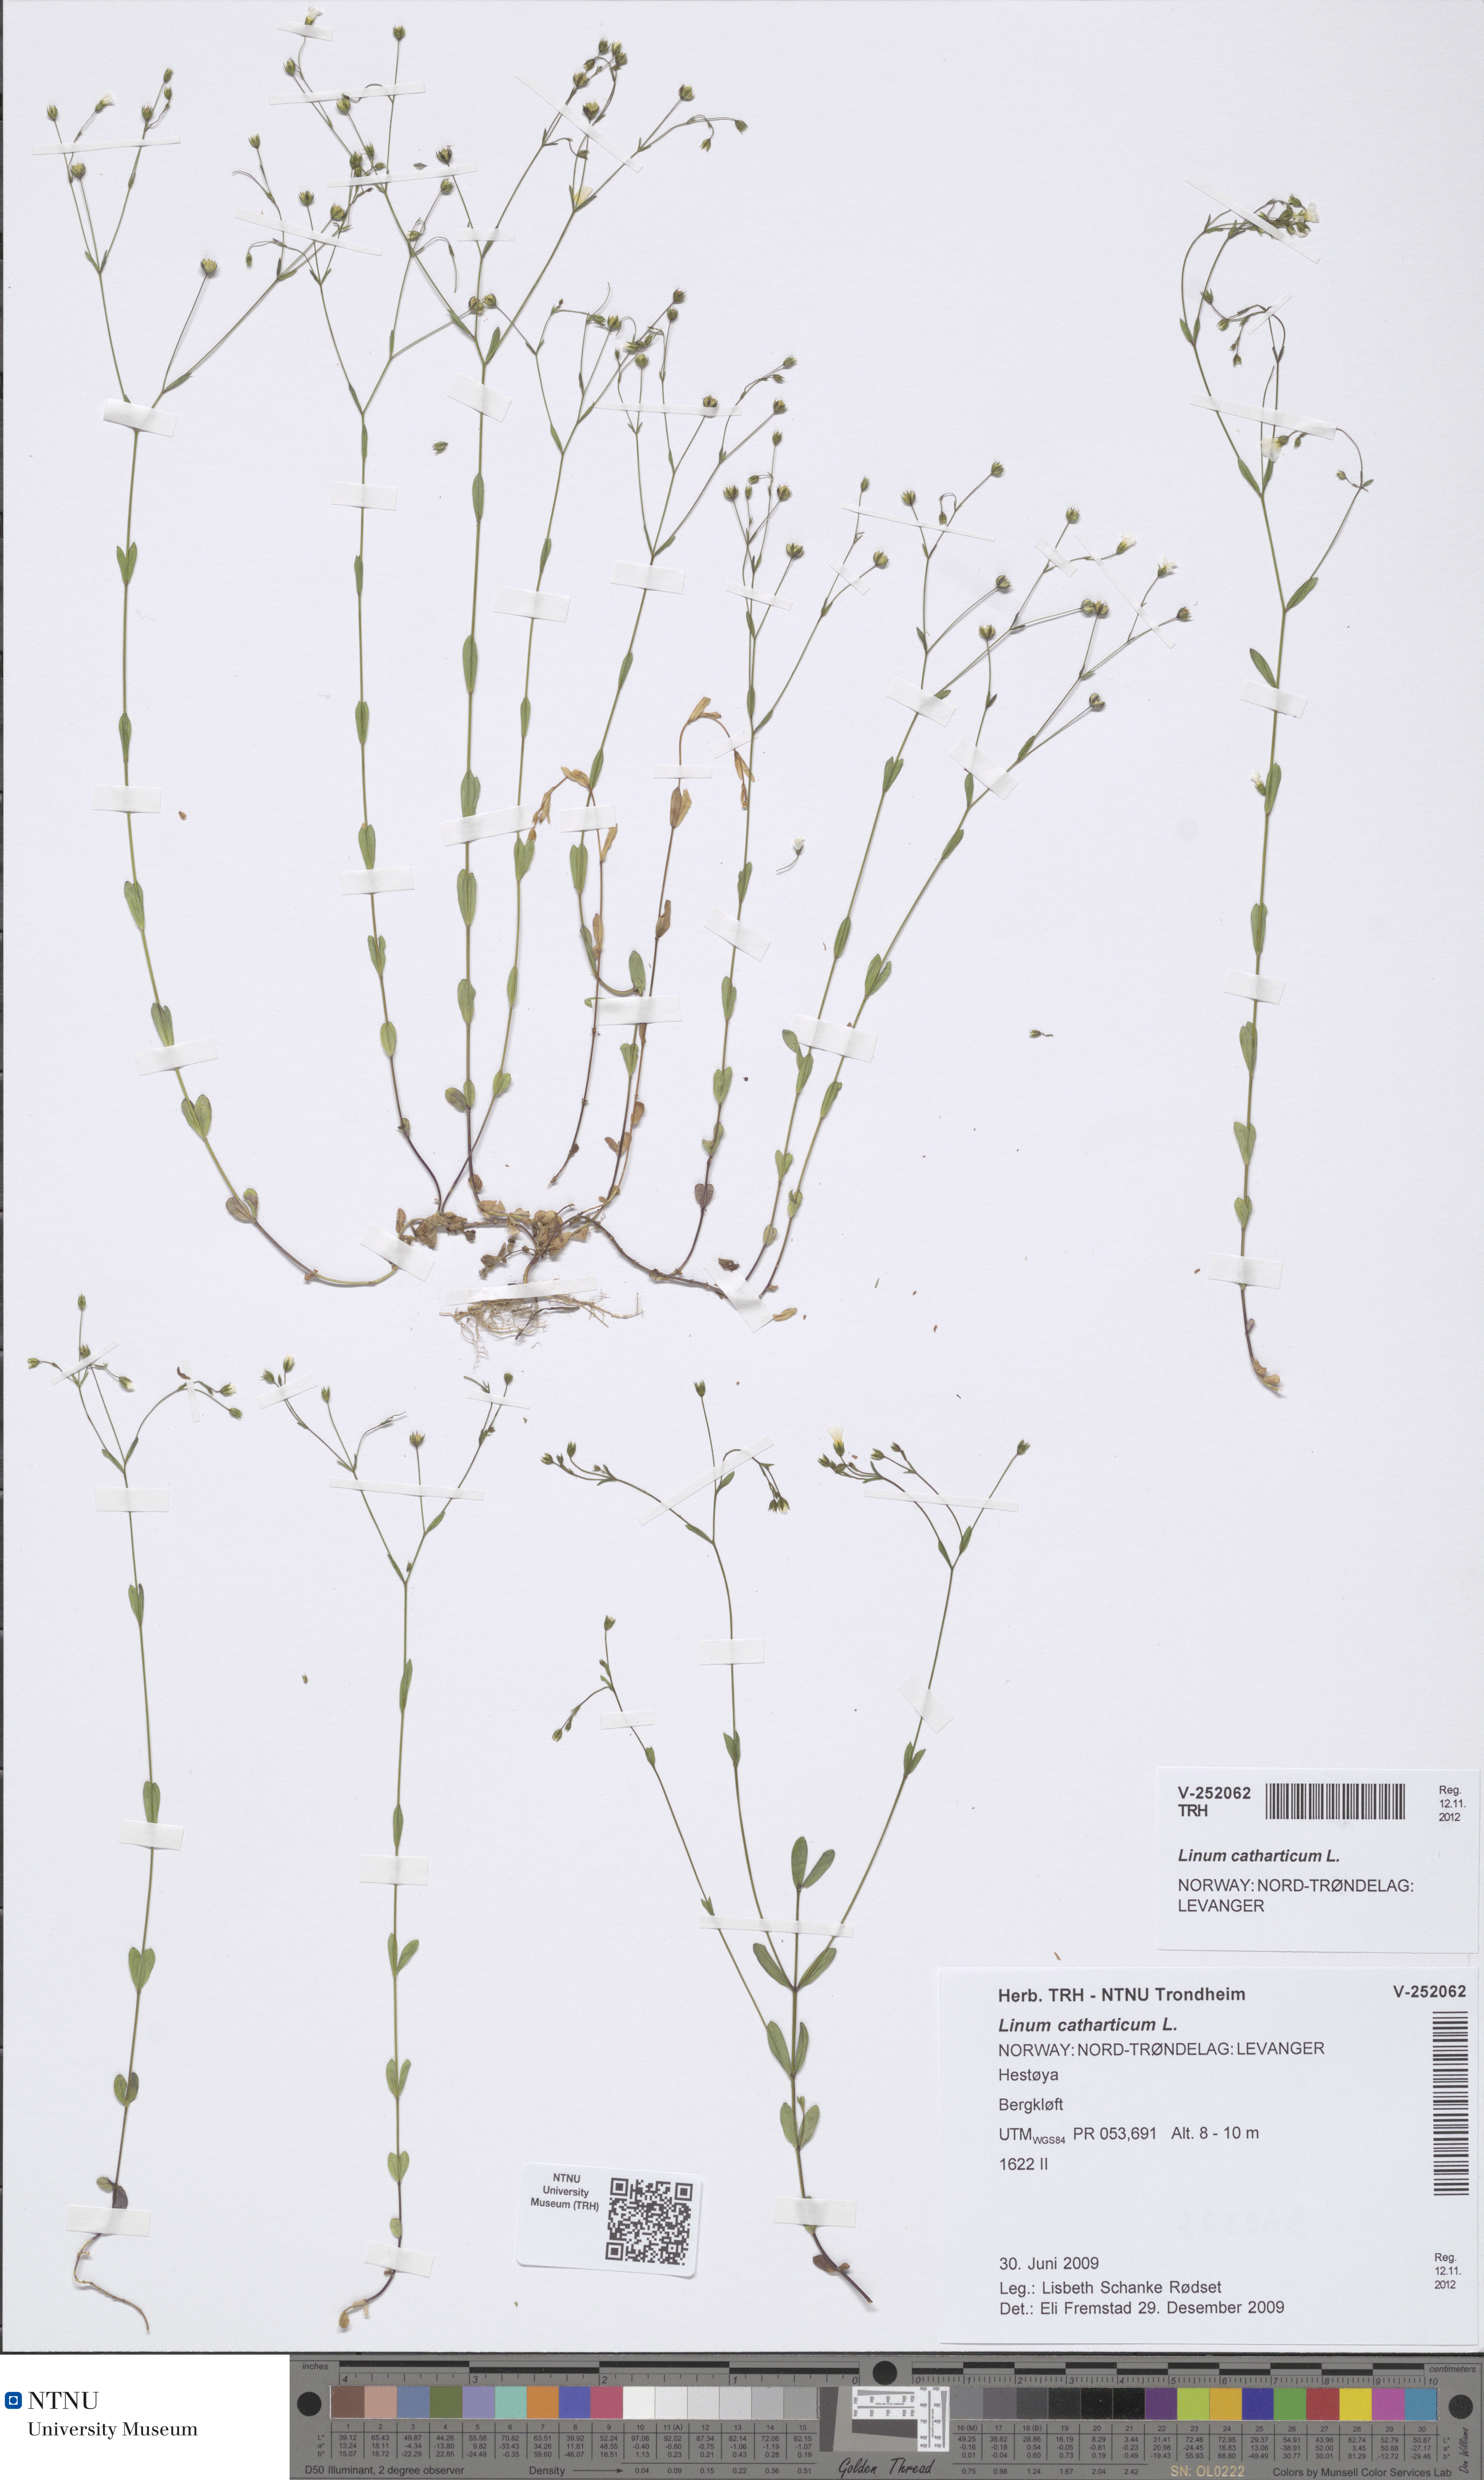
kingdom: Plantae
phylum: Tracheophyta
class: Magnoliopsida
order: Malpighiales
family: Linaceae
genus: Linum
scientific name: Linum catharticum
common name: Fairy flax
